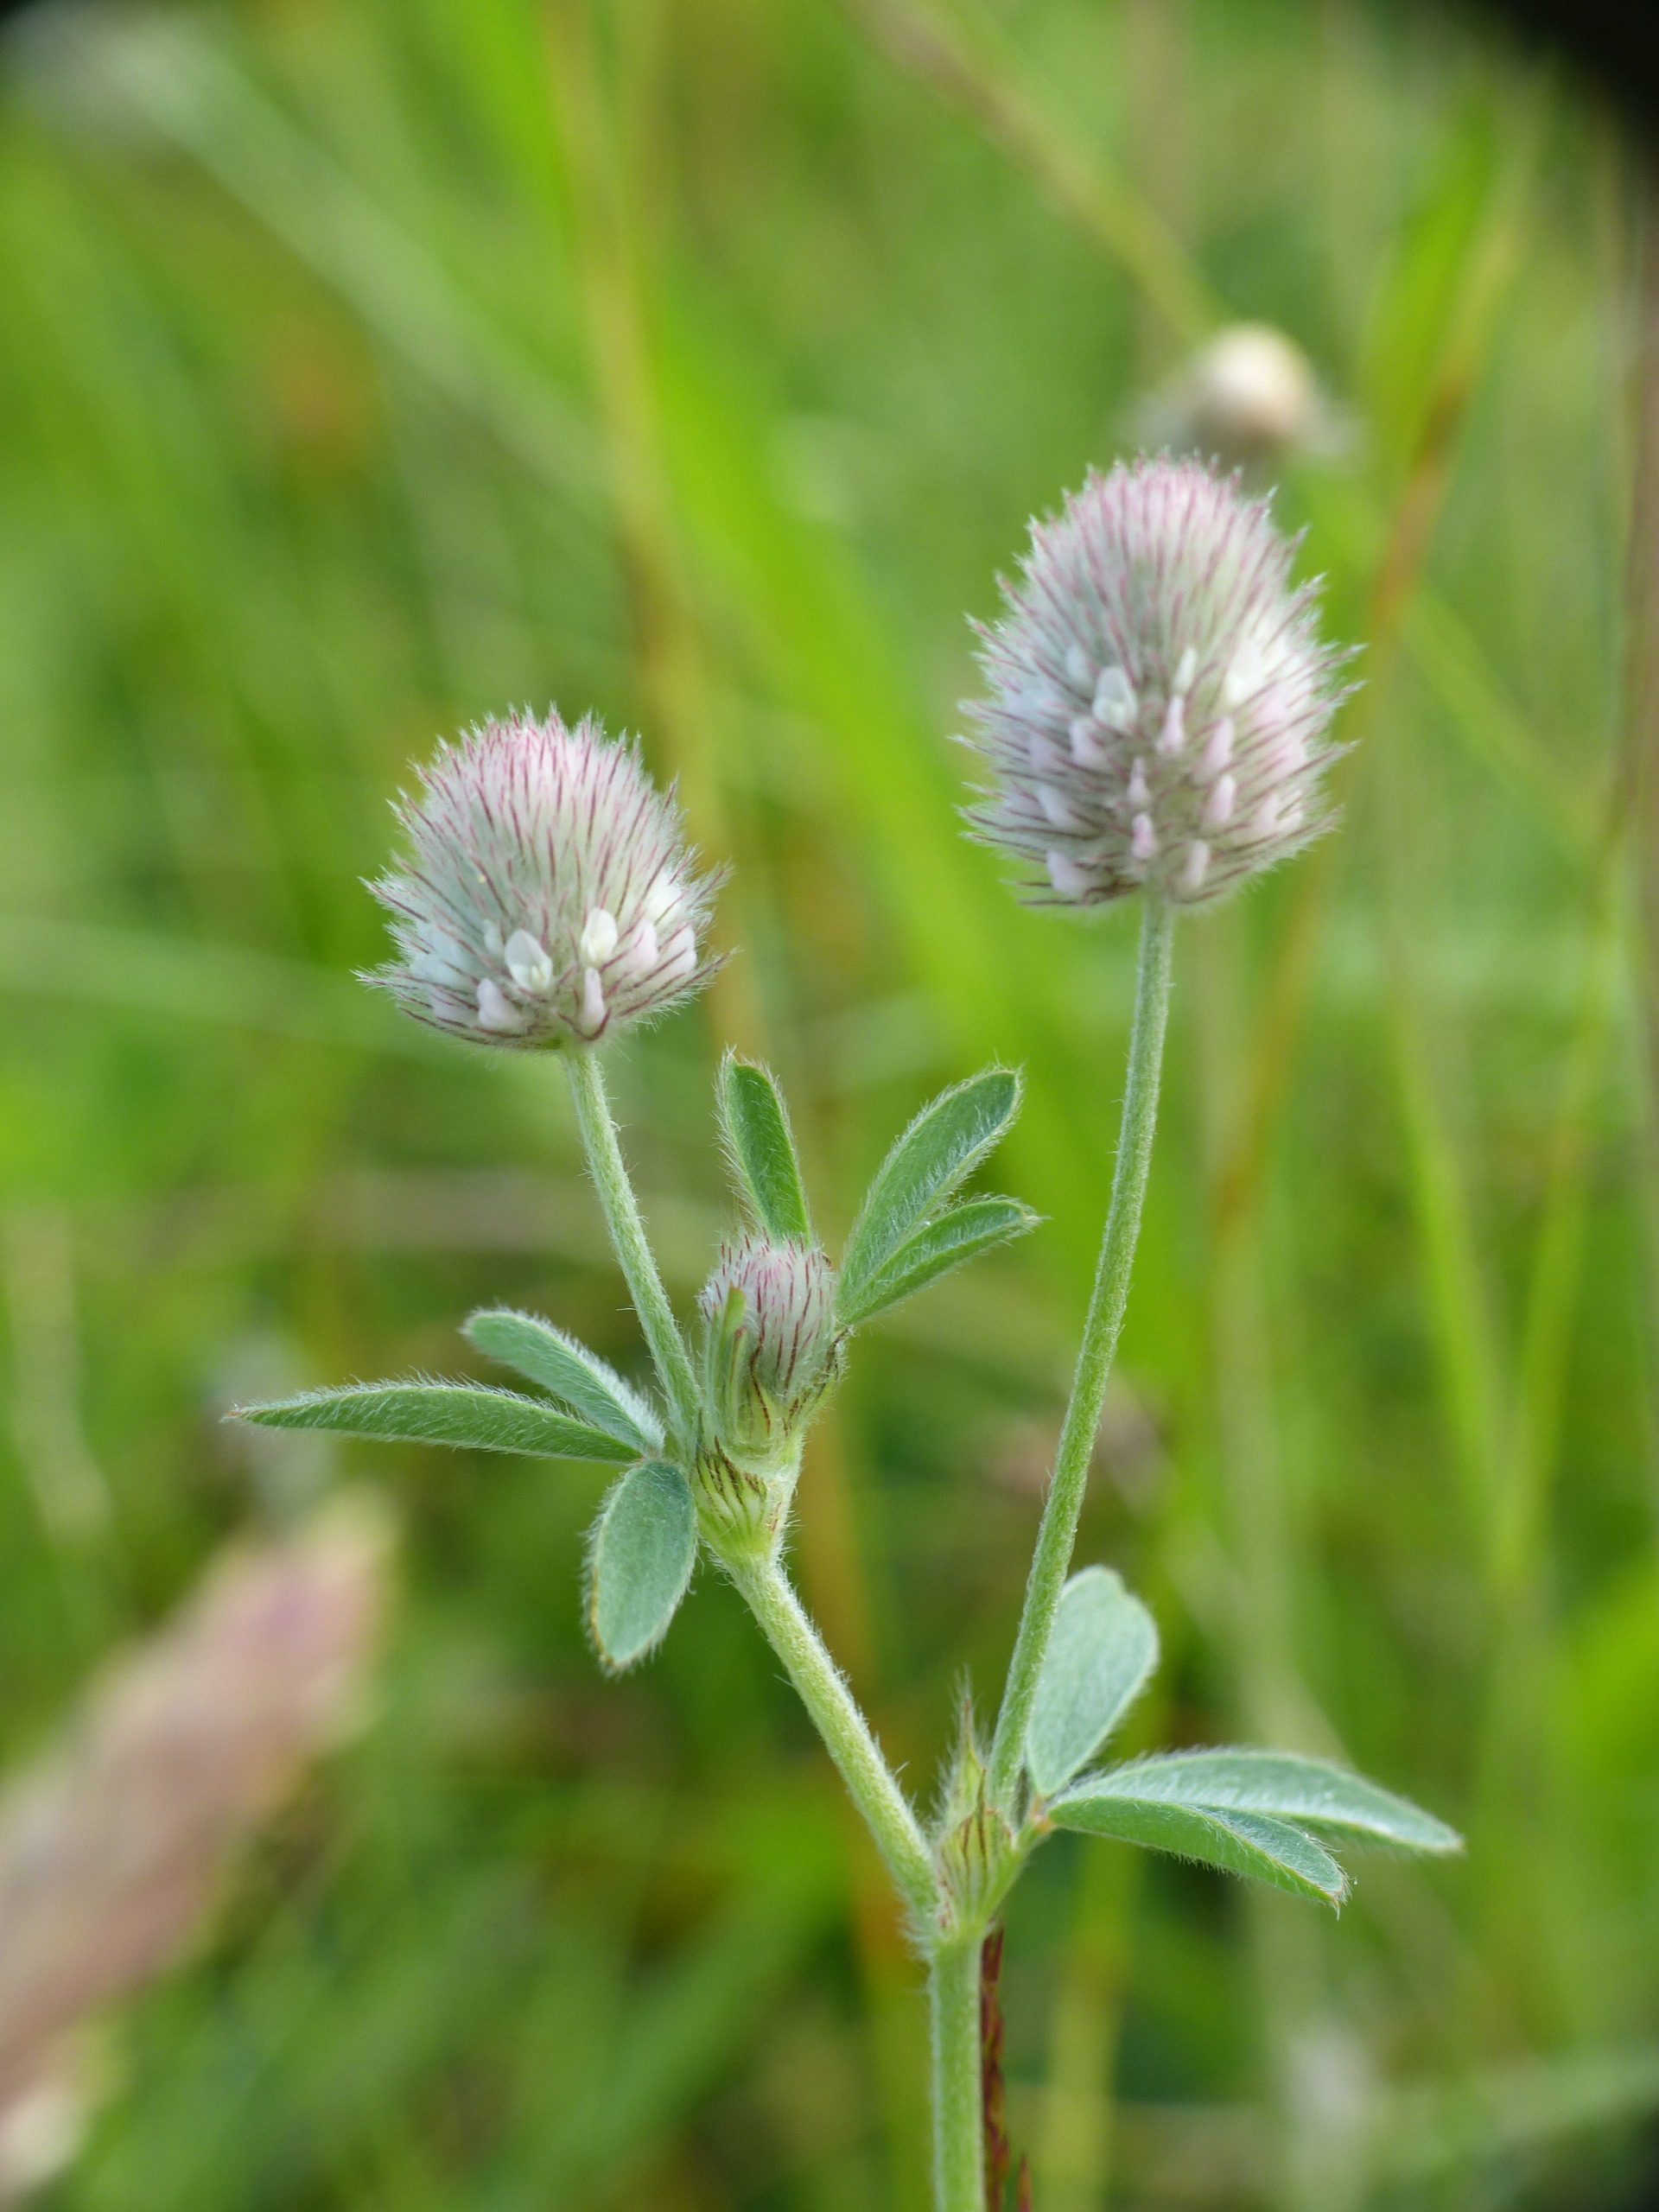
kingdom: Plantae
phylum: Tracheophyta
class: Magnoliopsida
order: Fabales
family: Fabaceae
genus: Trifolium
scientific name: Trifolium arvense
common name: Hare-kløver
